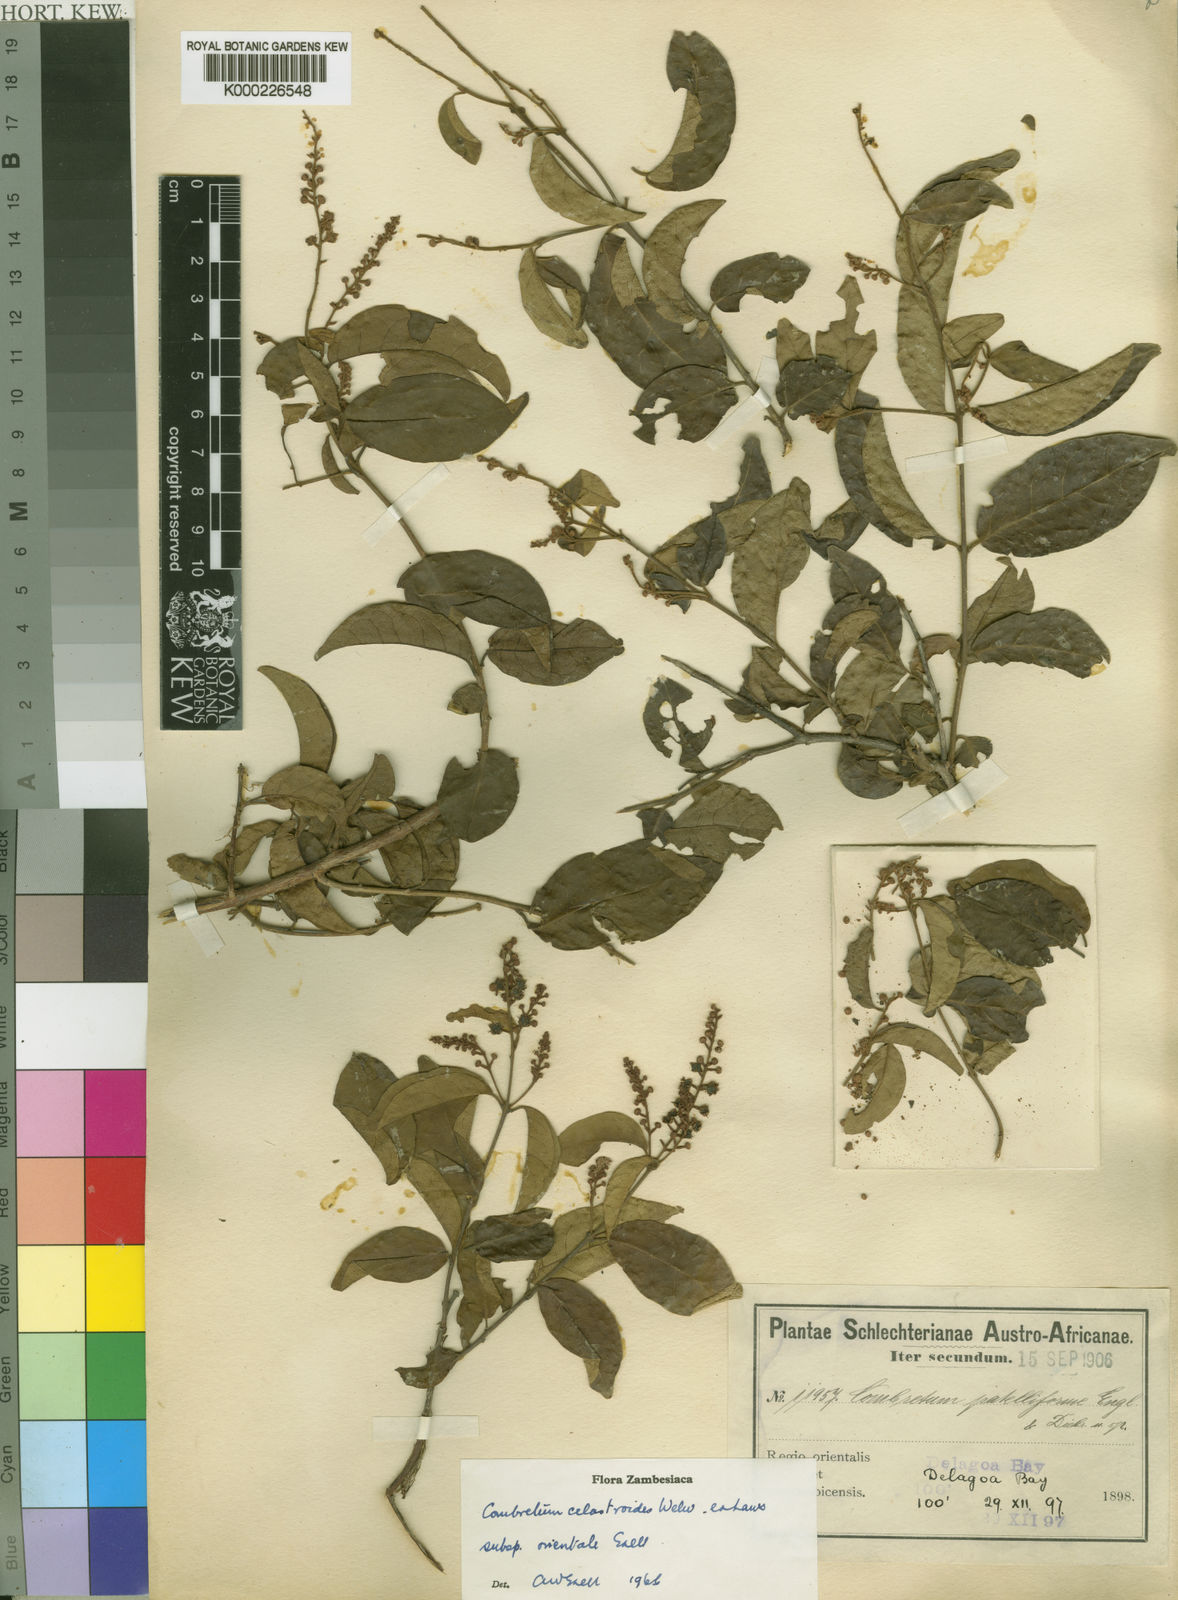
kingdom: Plantae
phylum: Tracheophyta
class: Magnoliopsida
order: Myrtales
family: Combretaceae
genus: Combretum
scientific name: Combretum celastroides
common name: Jesse-bush combretum
